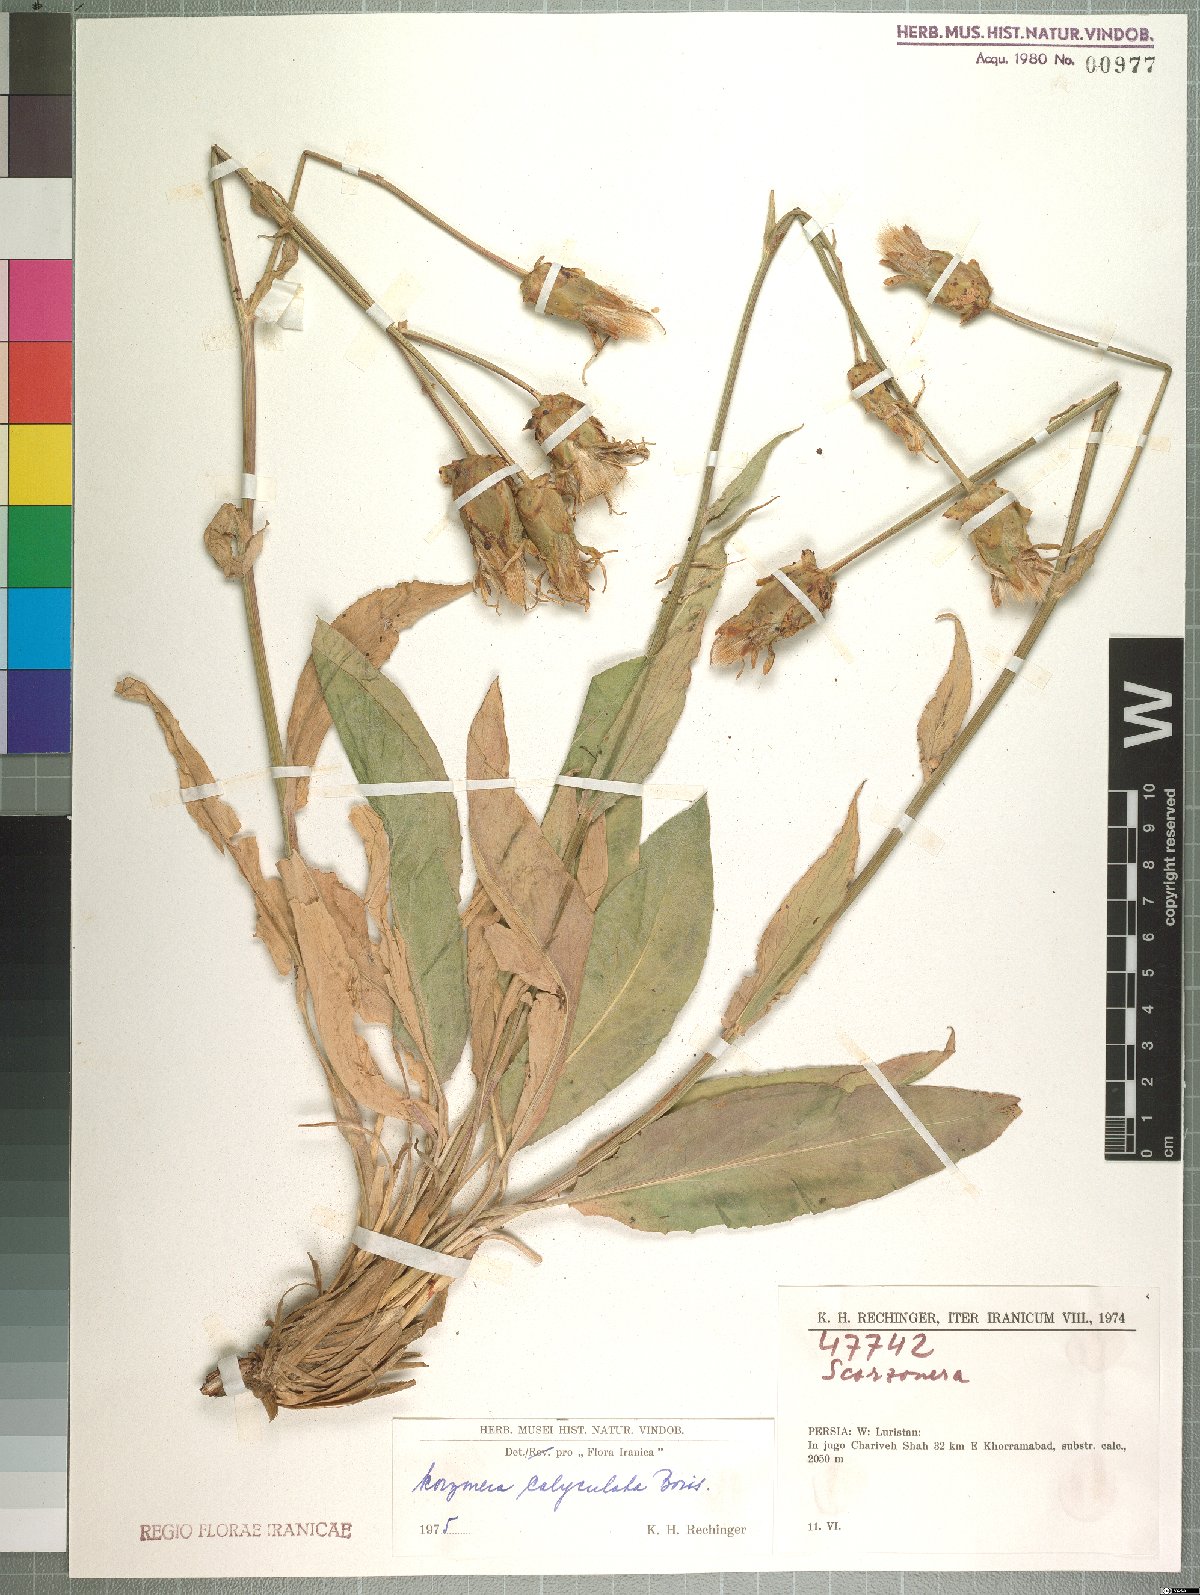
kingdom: Plantae
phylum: Tracheophyta
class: Magnoliopsida
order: Asterales
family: Asteraceae
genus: Aslia
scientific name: Aslia calyculata
